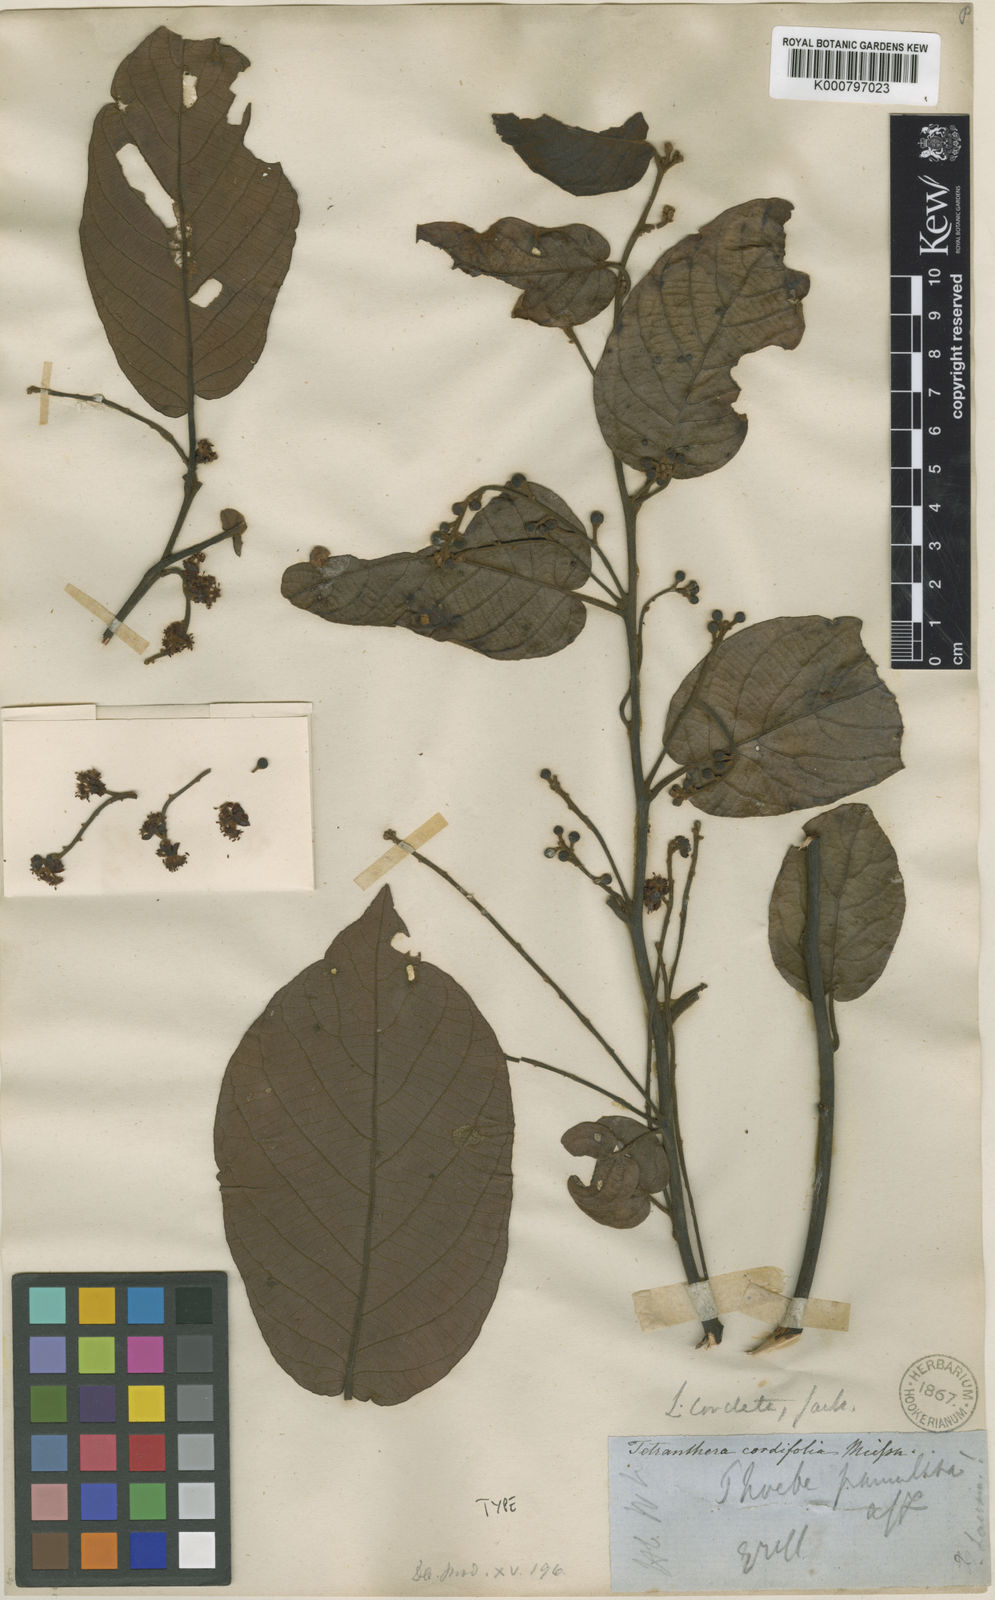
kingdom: Plantae
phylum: Tracheophyta
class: Magnoliopsida
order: Laurales
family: Lauraceae
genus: Litsea
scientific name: Litsea cordata
